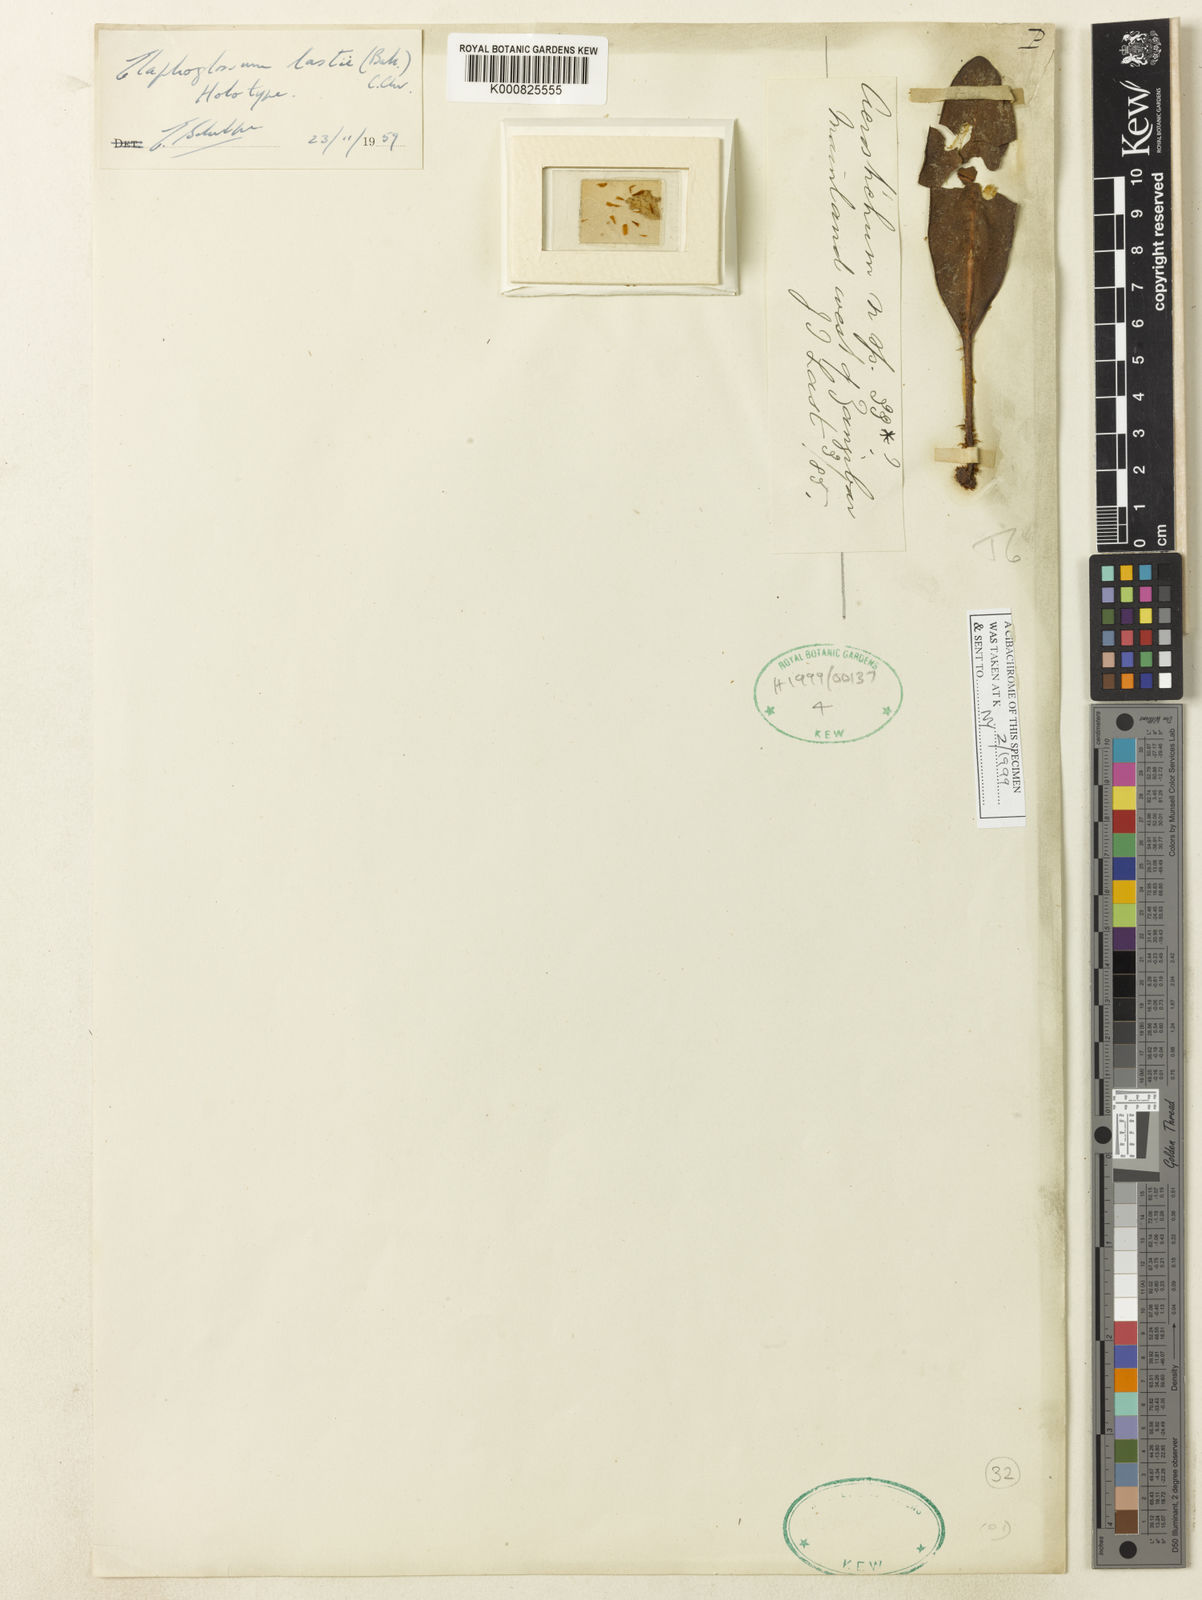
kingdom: Plantae
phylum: Tracheophyta
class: Polypodiopsida
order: Polypodiales
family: Dryopteridaceae
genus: Elaphoglossum
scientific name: Elaphoglossum lastii
